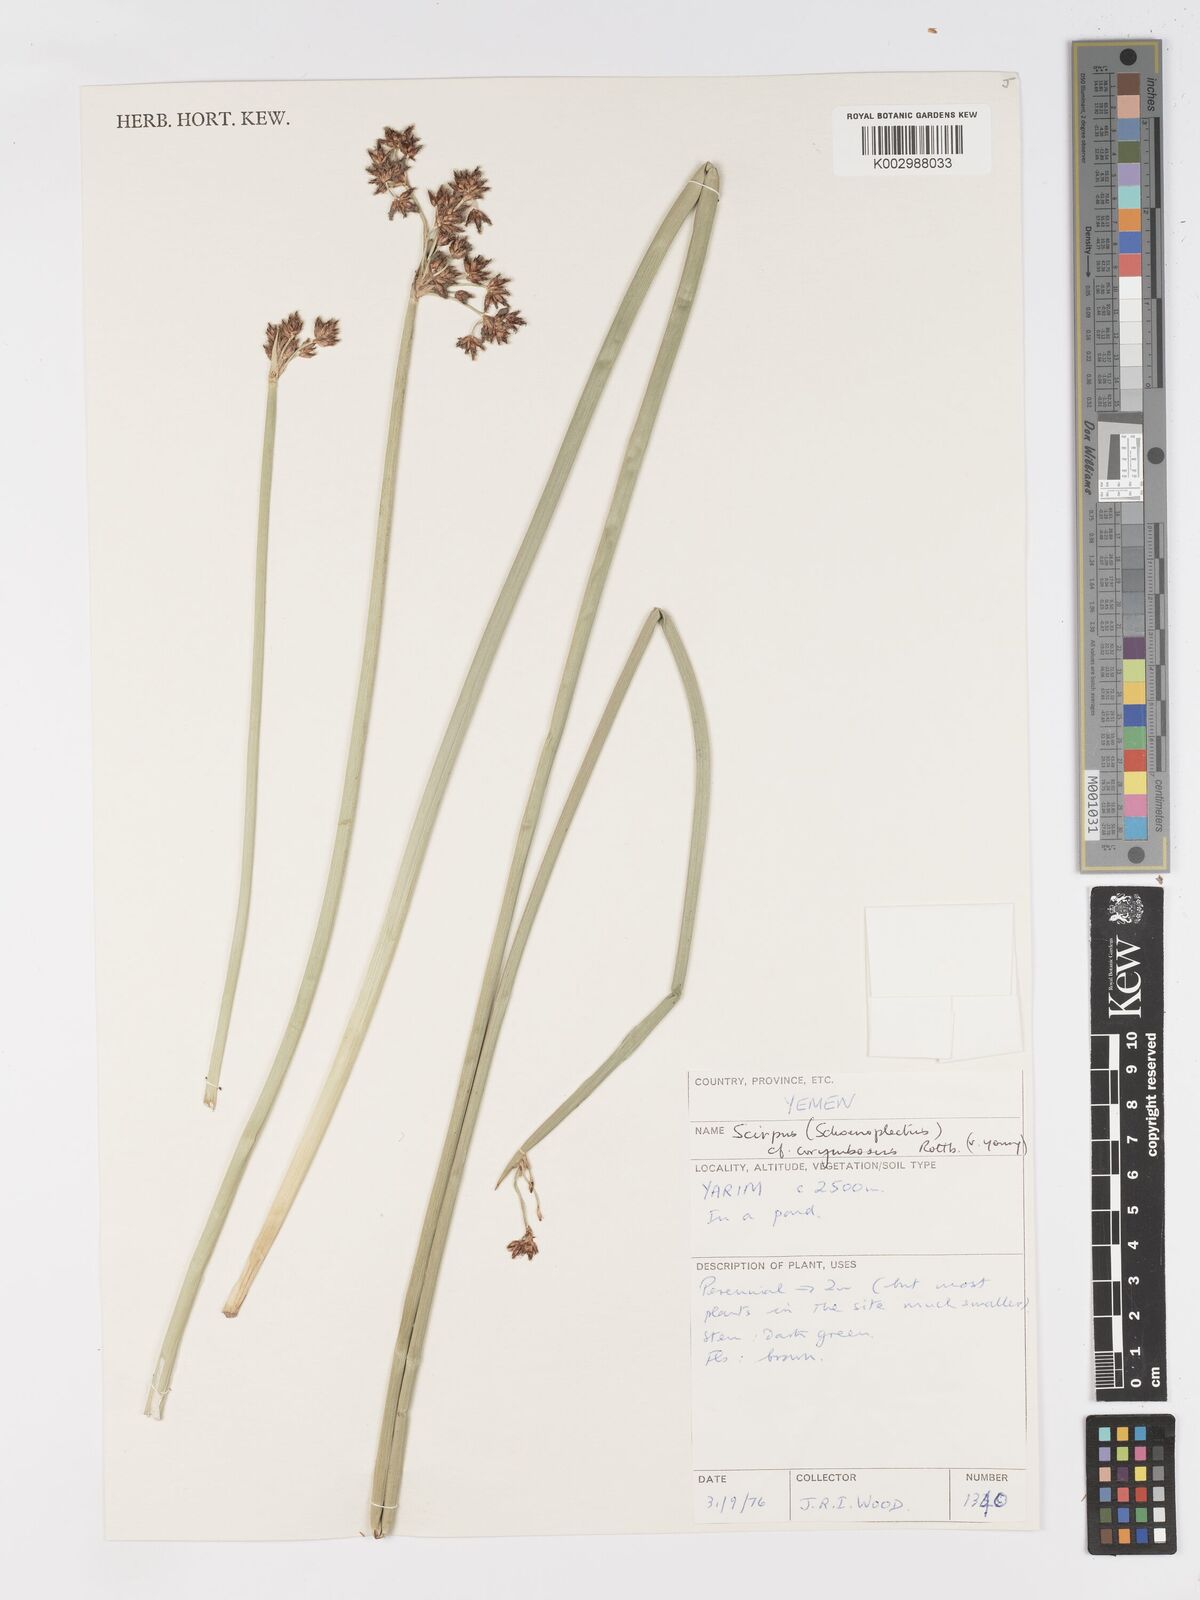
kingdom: Plantae
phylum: Tracheophyta
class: Liliopsida
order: Poales
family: Cyperaceae
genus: Schoenoplectiella
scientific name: Schoenoplectiella corymbosa
